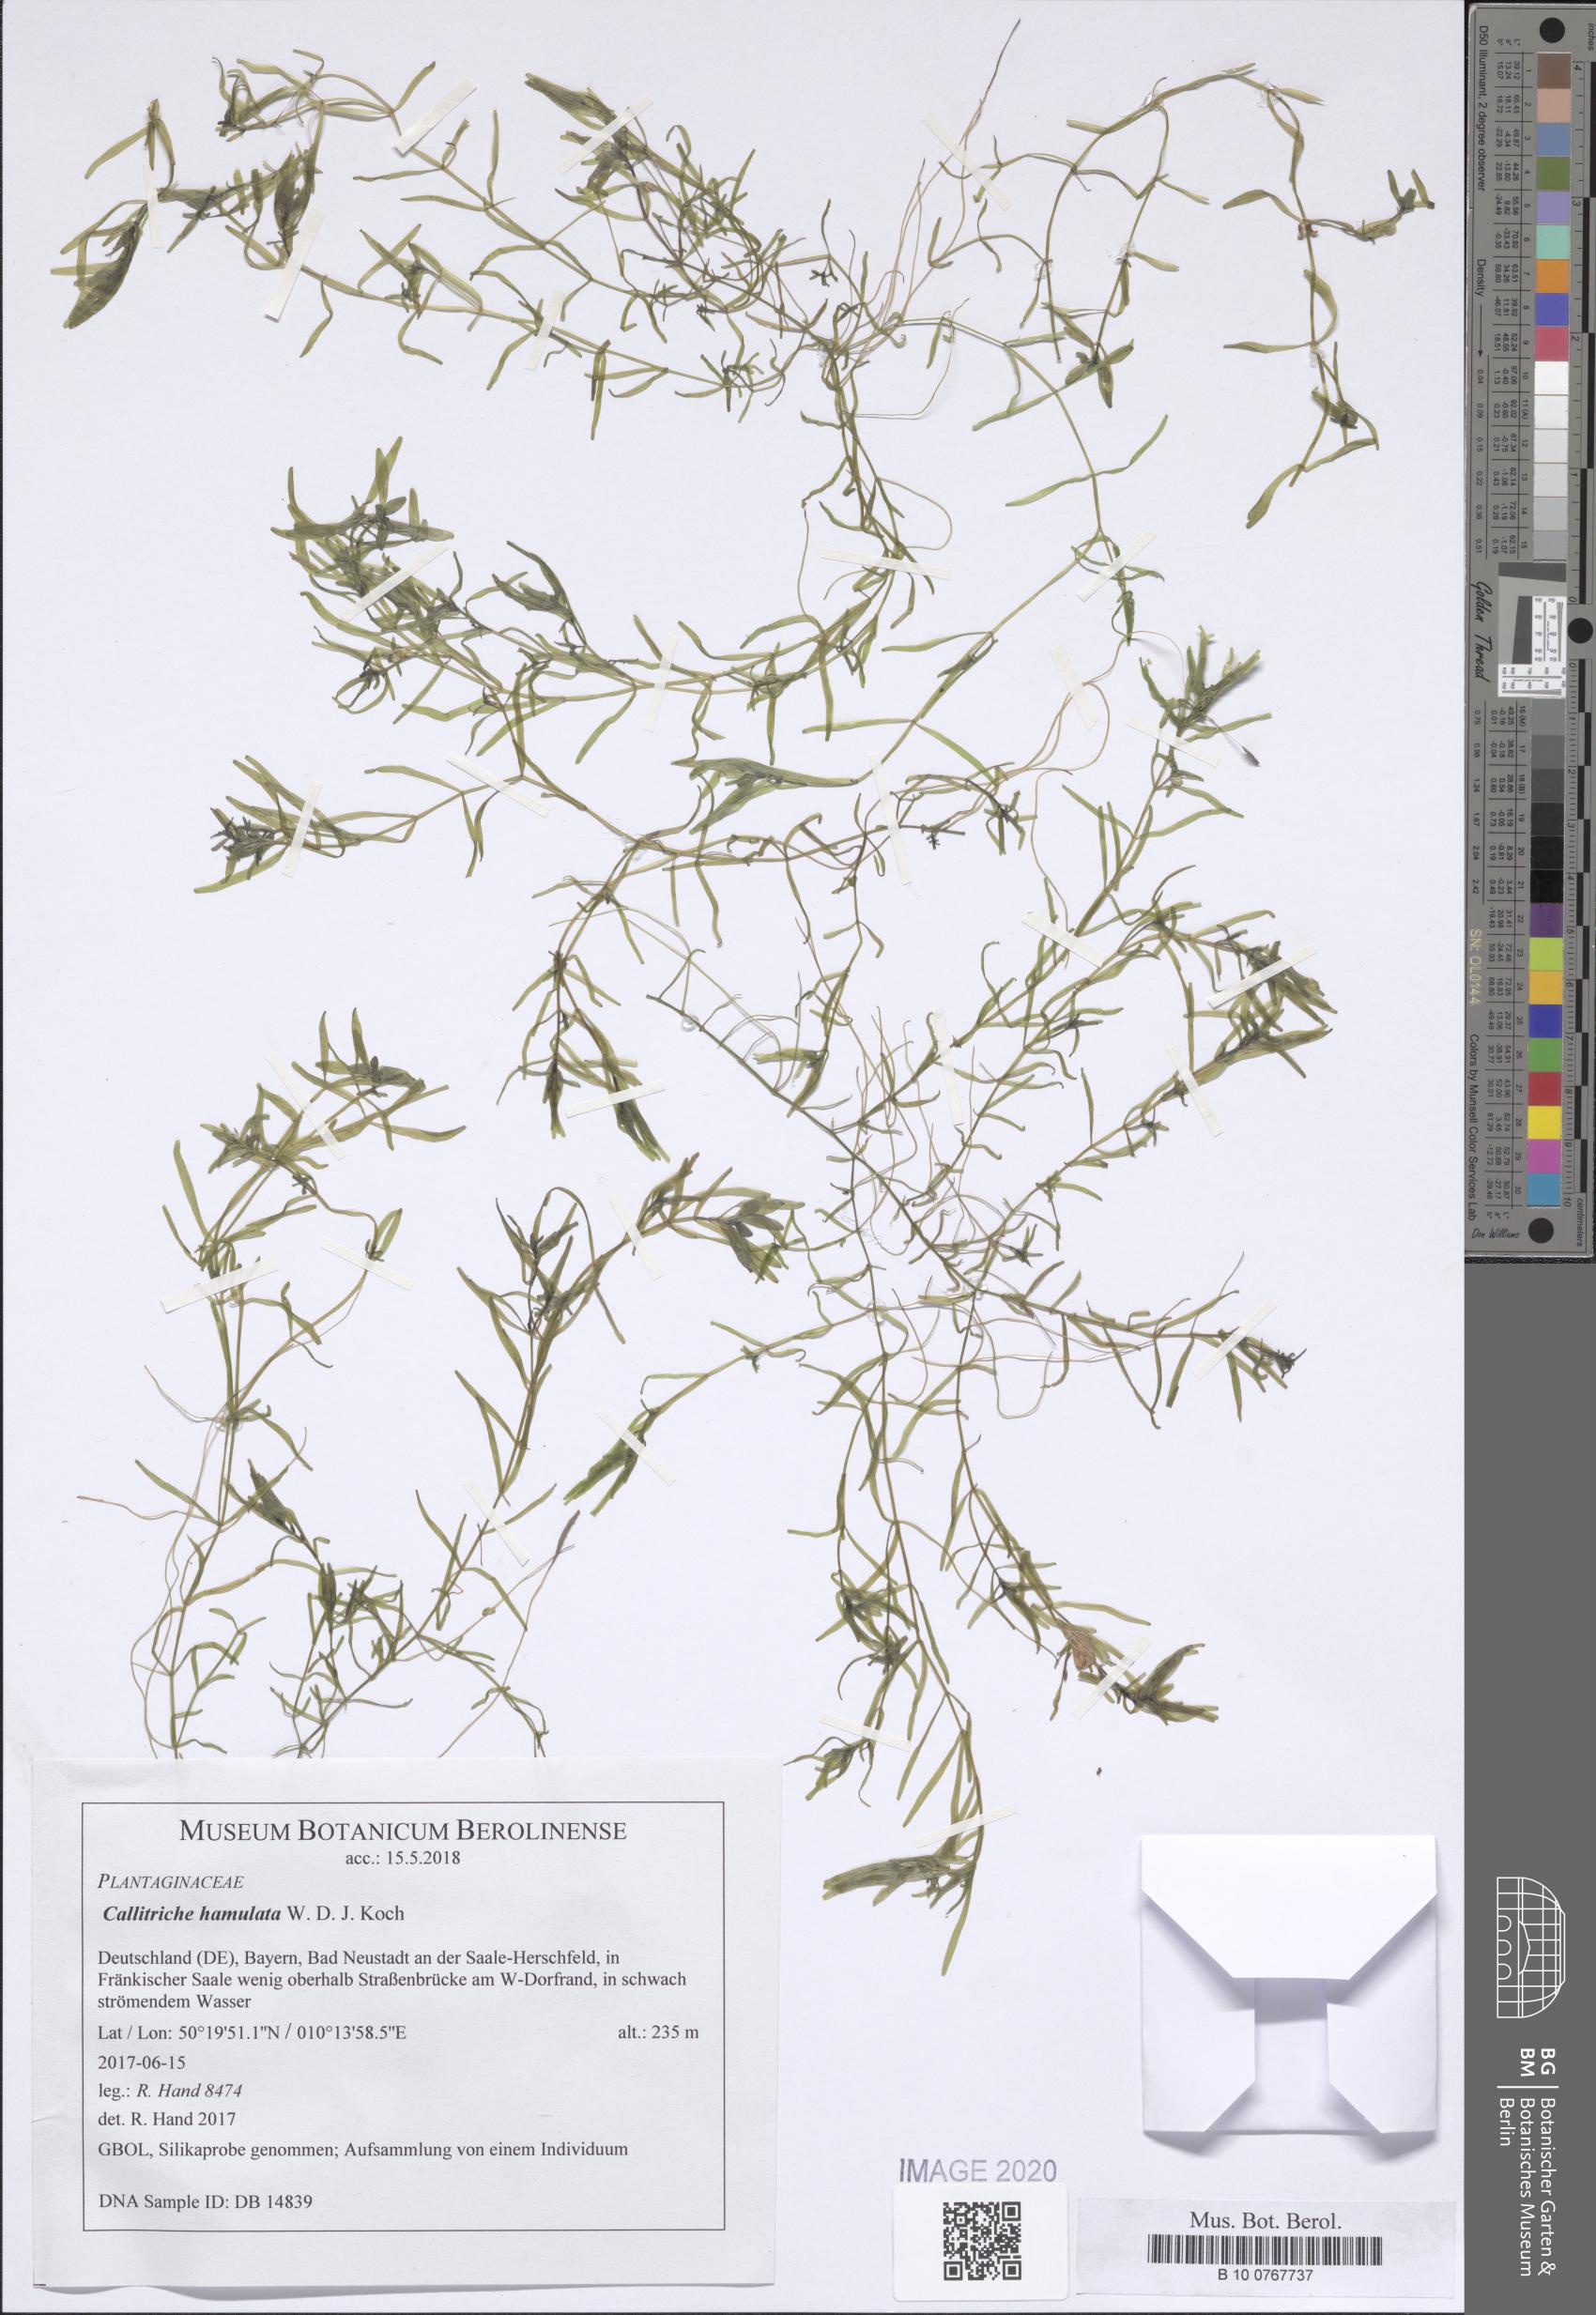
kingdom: Plantae
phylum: Tracheophyta
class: Magnoliopsida
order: Lamiales
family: Plantaginaceae
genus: Callitriche
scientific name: Callitriche hamulata
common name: Intermediate water-starwort
